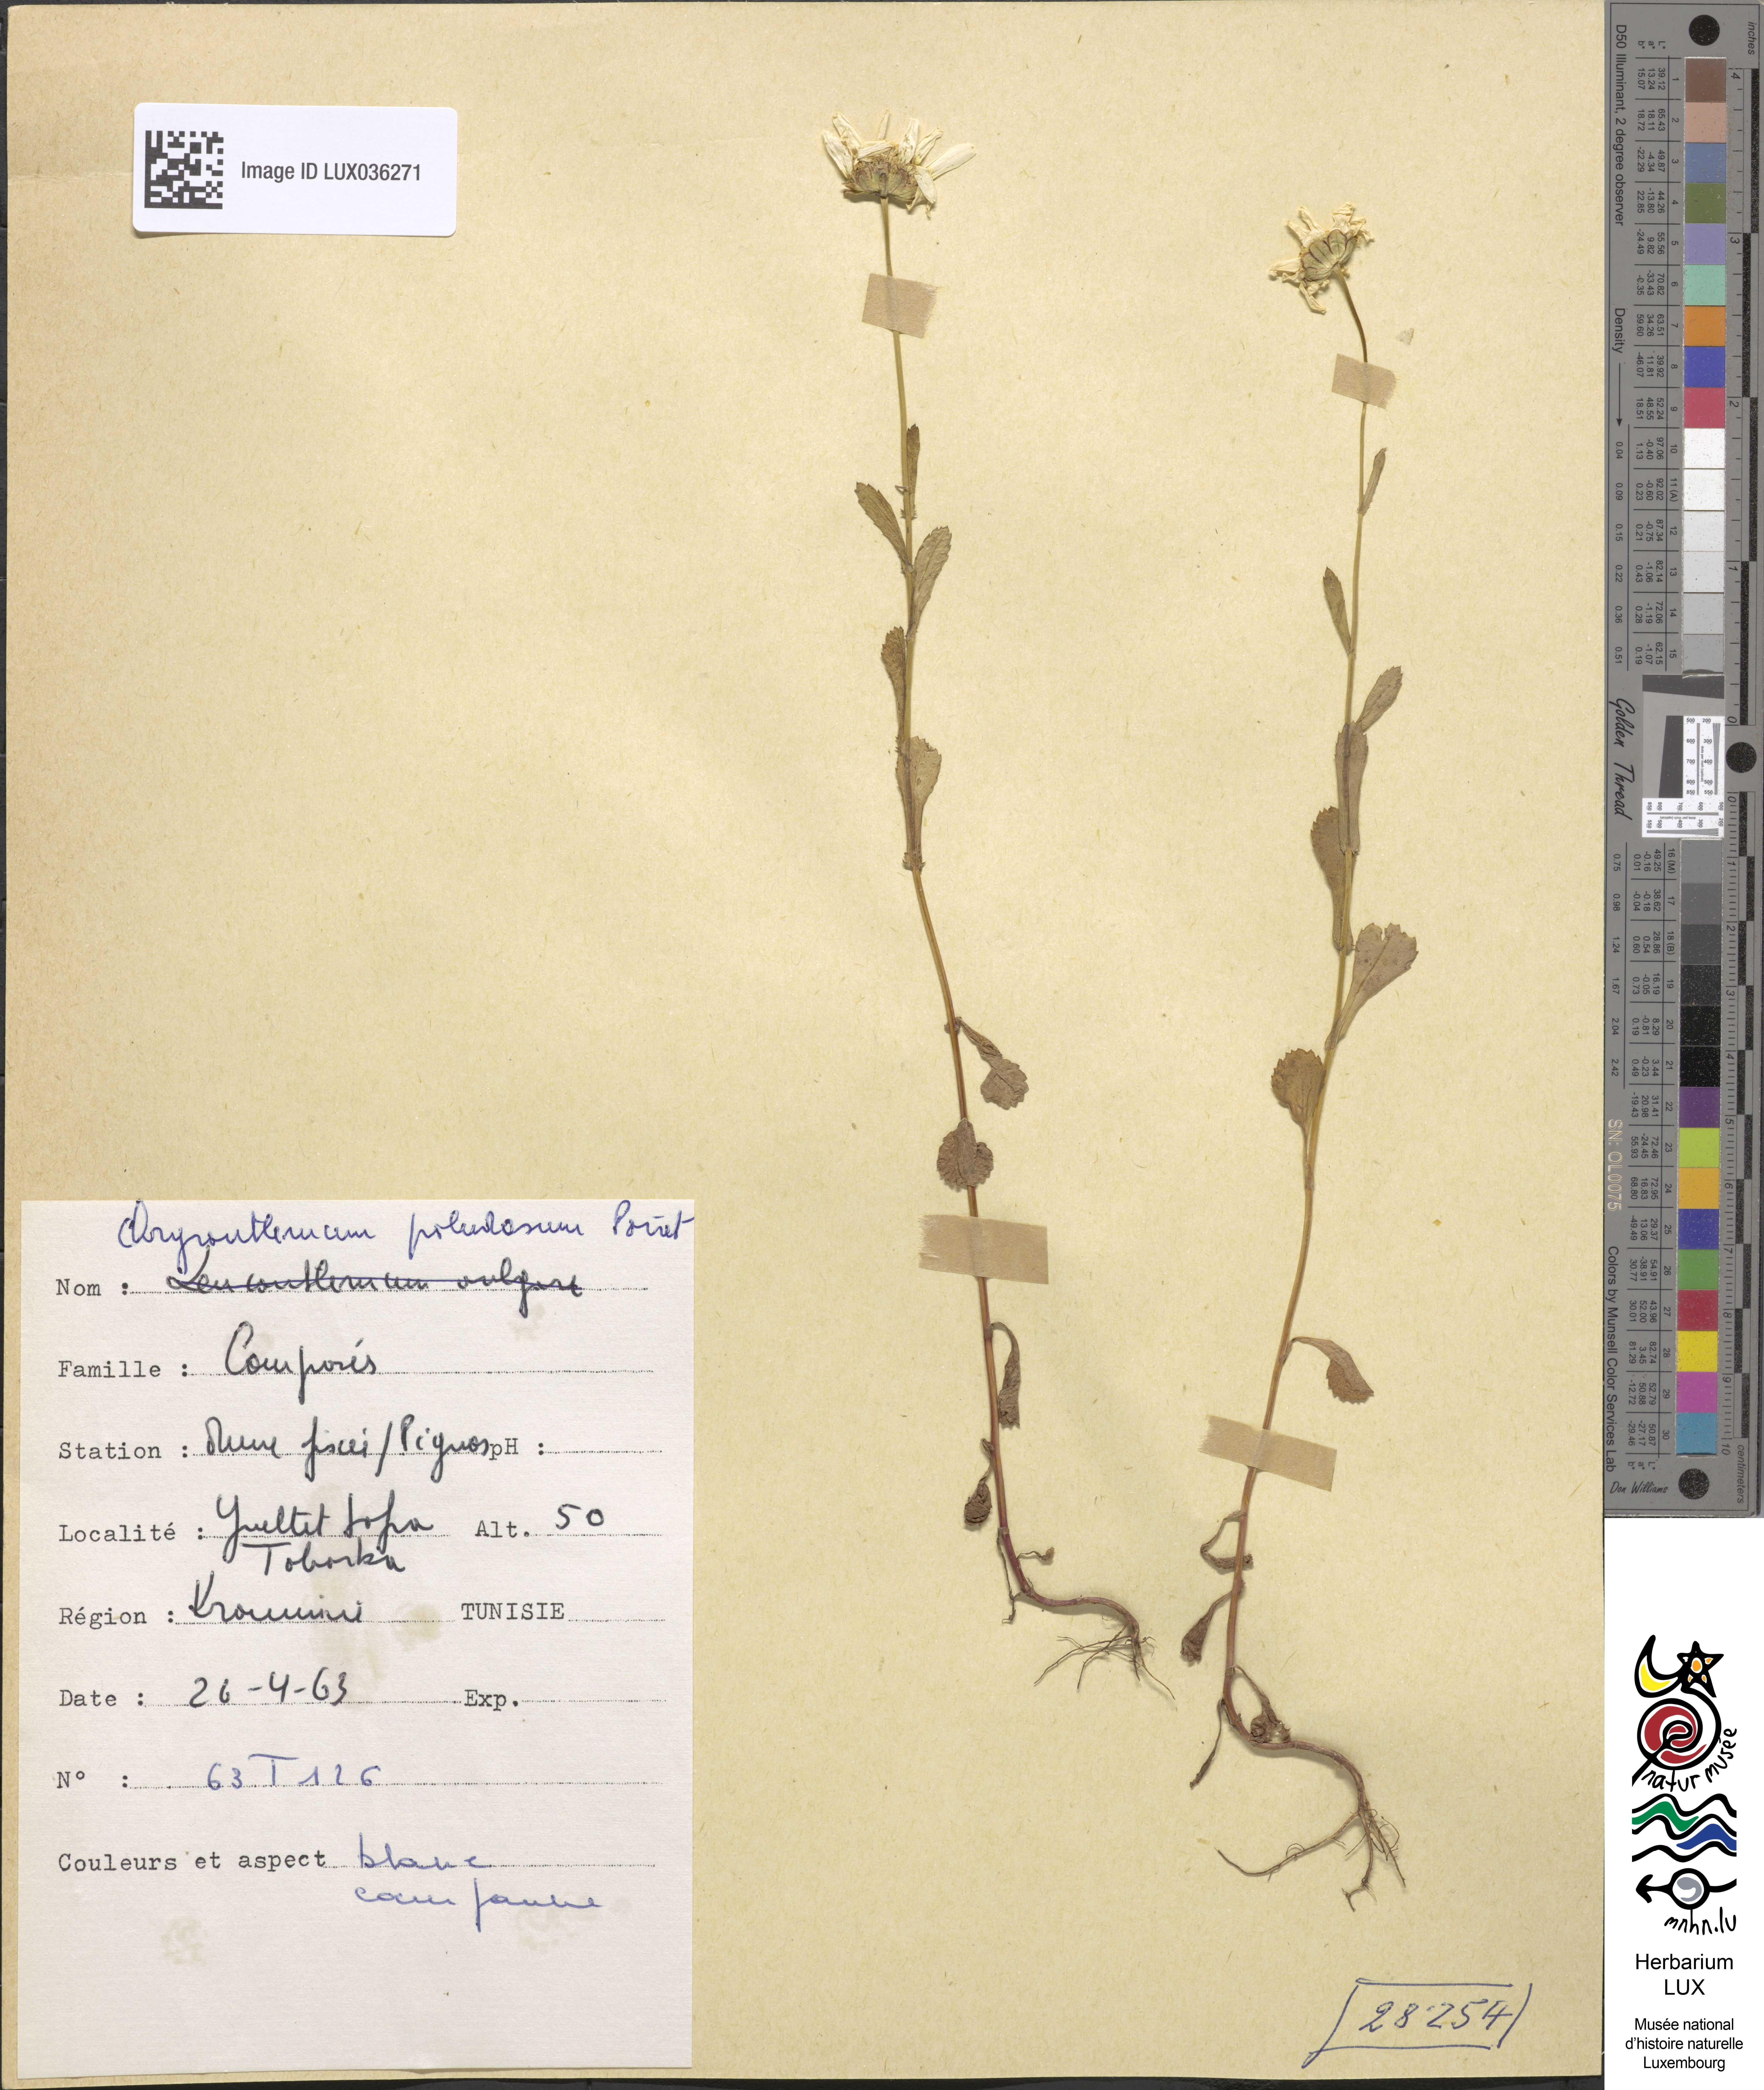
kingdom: Plantae
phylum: Tracheophyta
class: Magnoliopsida
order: Asterales
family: Asteraceae
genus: Mauranthemum
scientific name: Mauranthemum paludosum
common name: Sunflower
